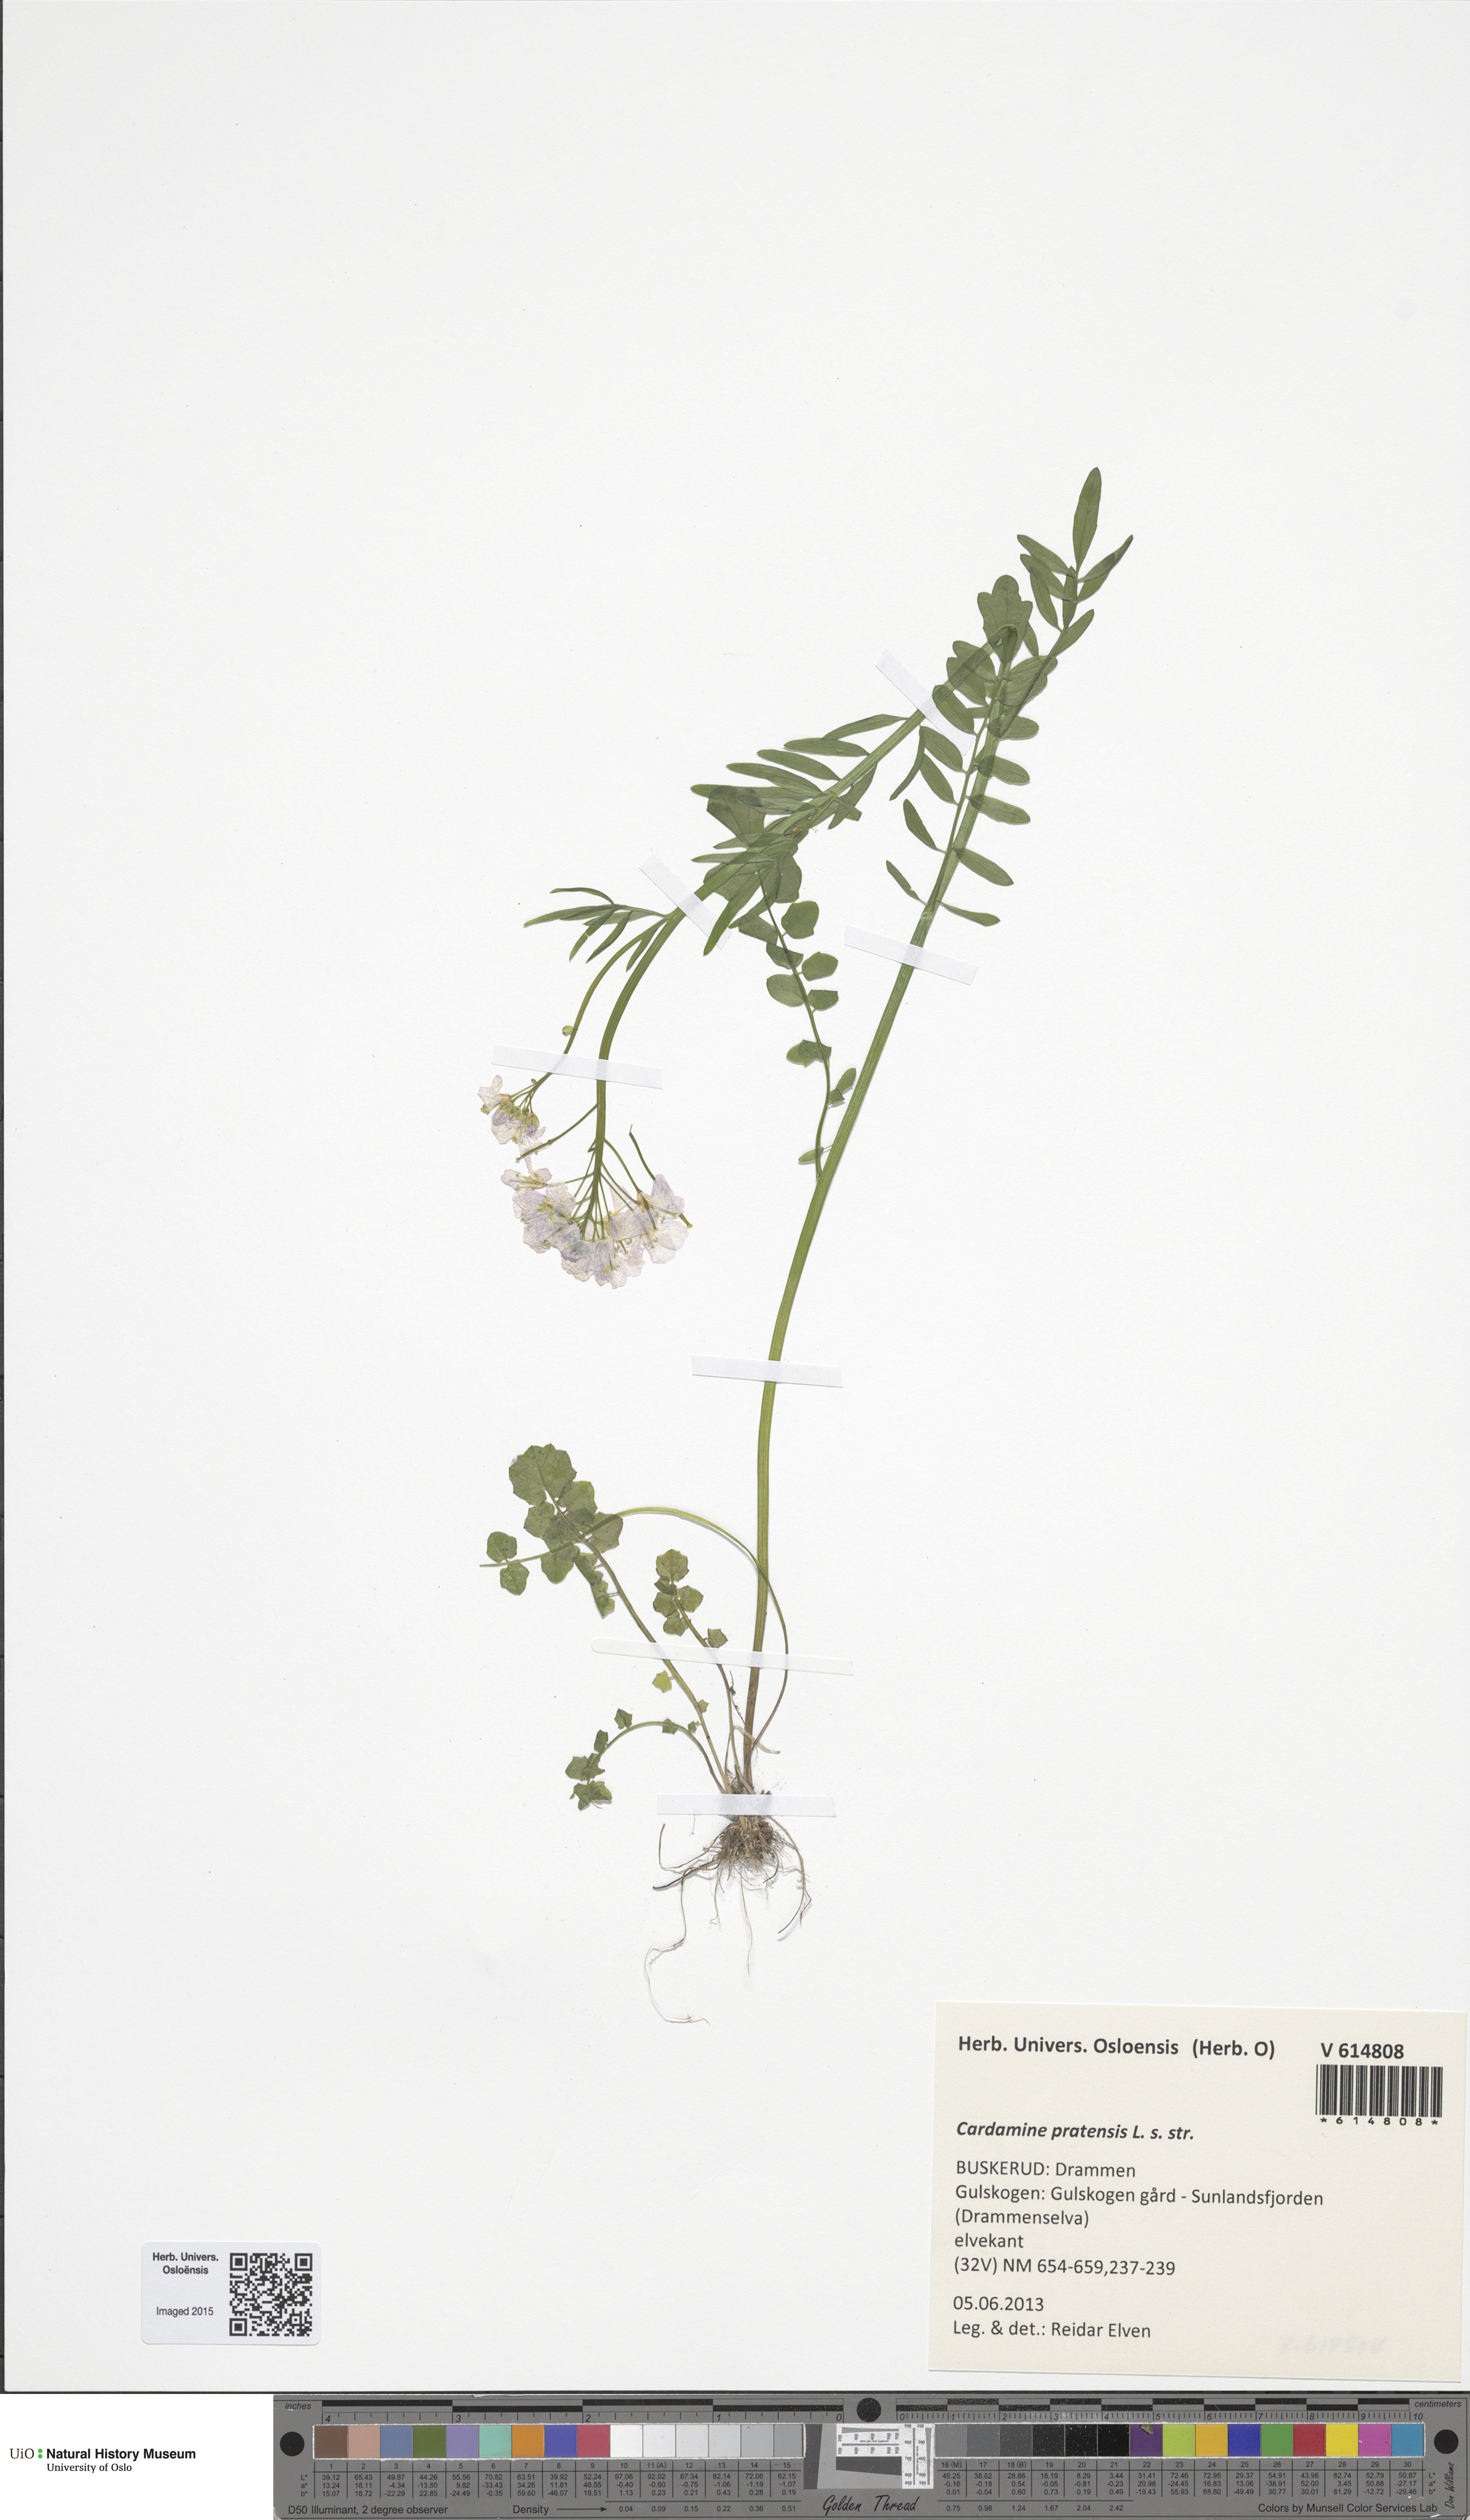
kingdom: Plantae
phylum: Tracheophyta
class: Magnoliopsida
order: Brassicales
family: Brassicaceae
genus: Cardamine
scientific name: Cardamine pratensis
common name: Cuckoo flower
